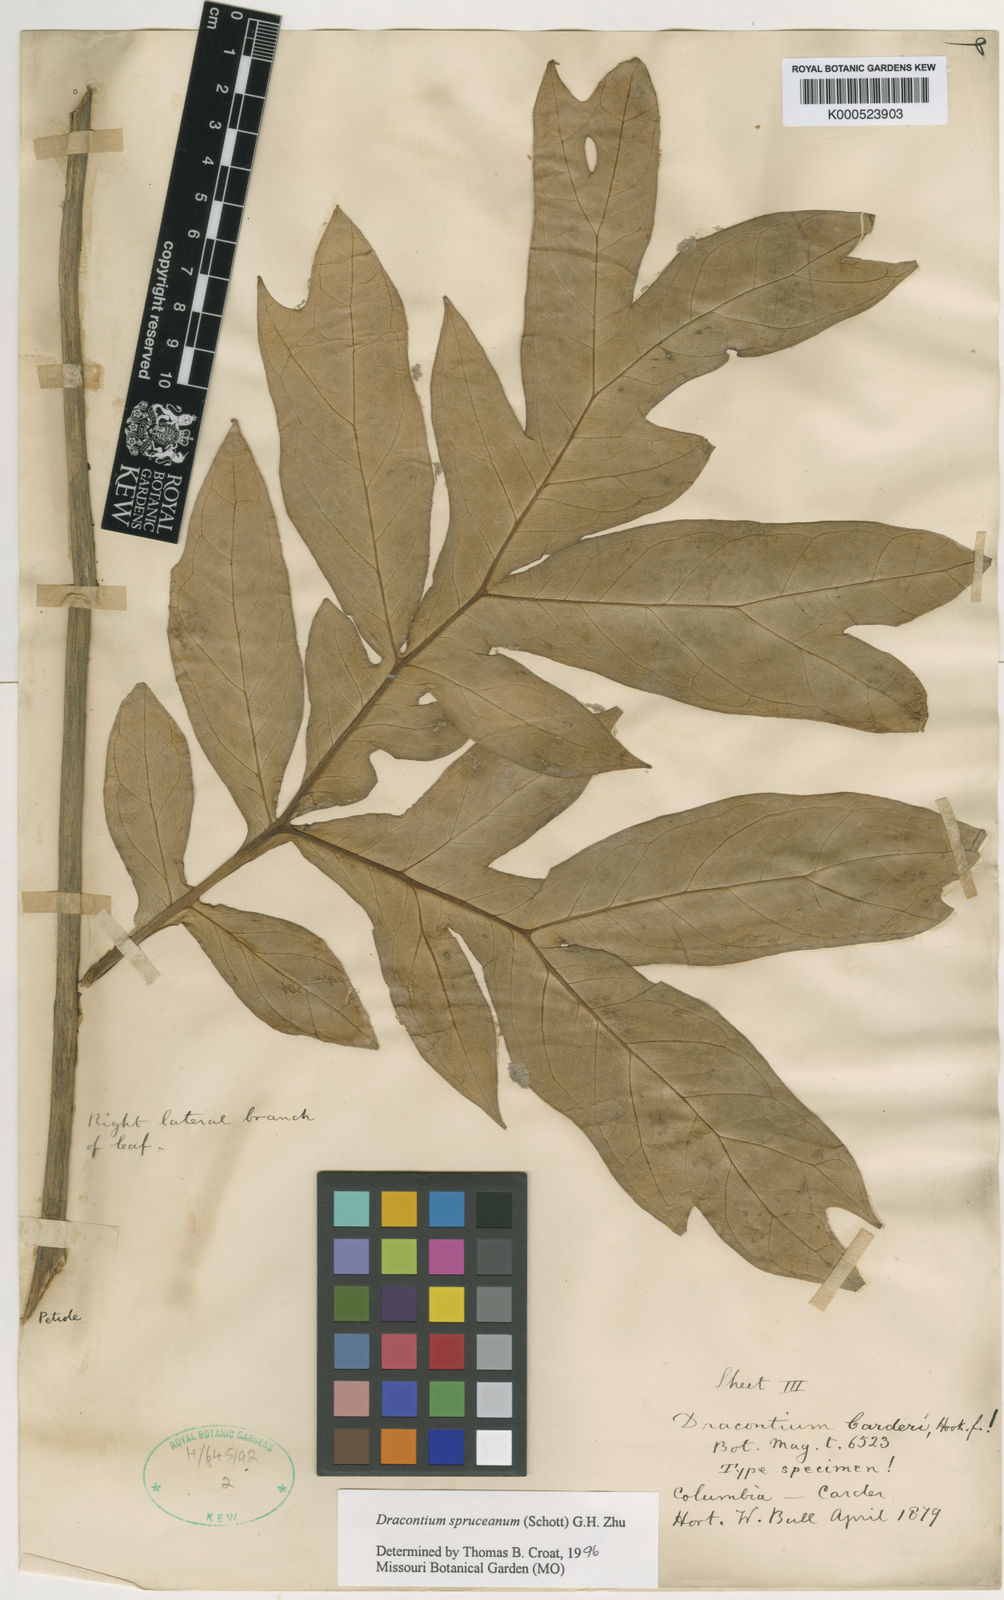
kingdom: Plantae
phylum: Tracheophyta
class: Liliopsida
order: Alismatales
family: Araceae
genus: Dracontium
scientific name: Dracontium spruceanum
